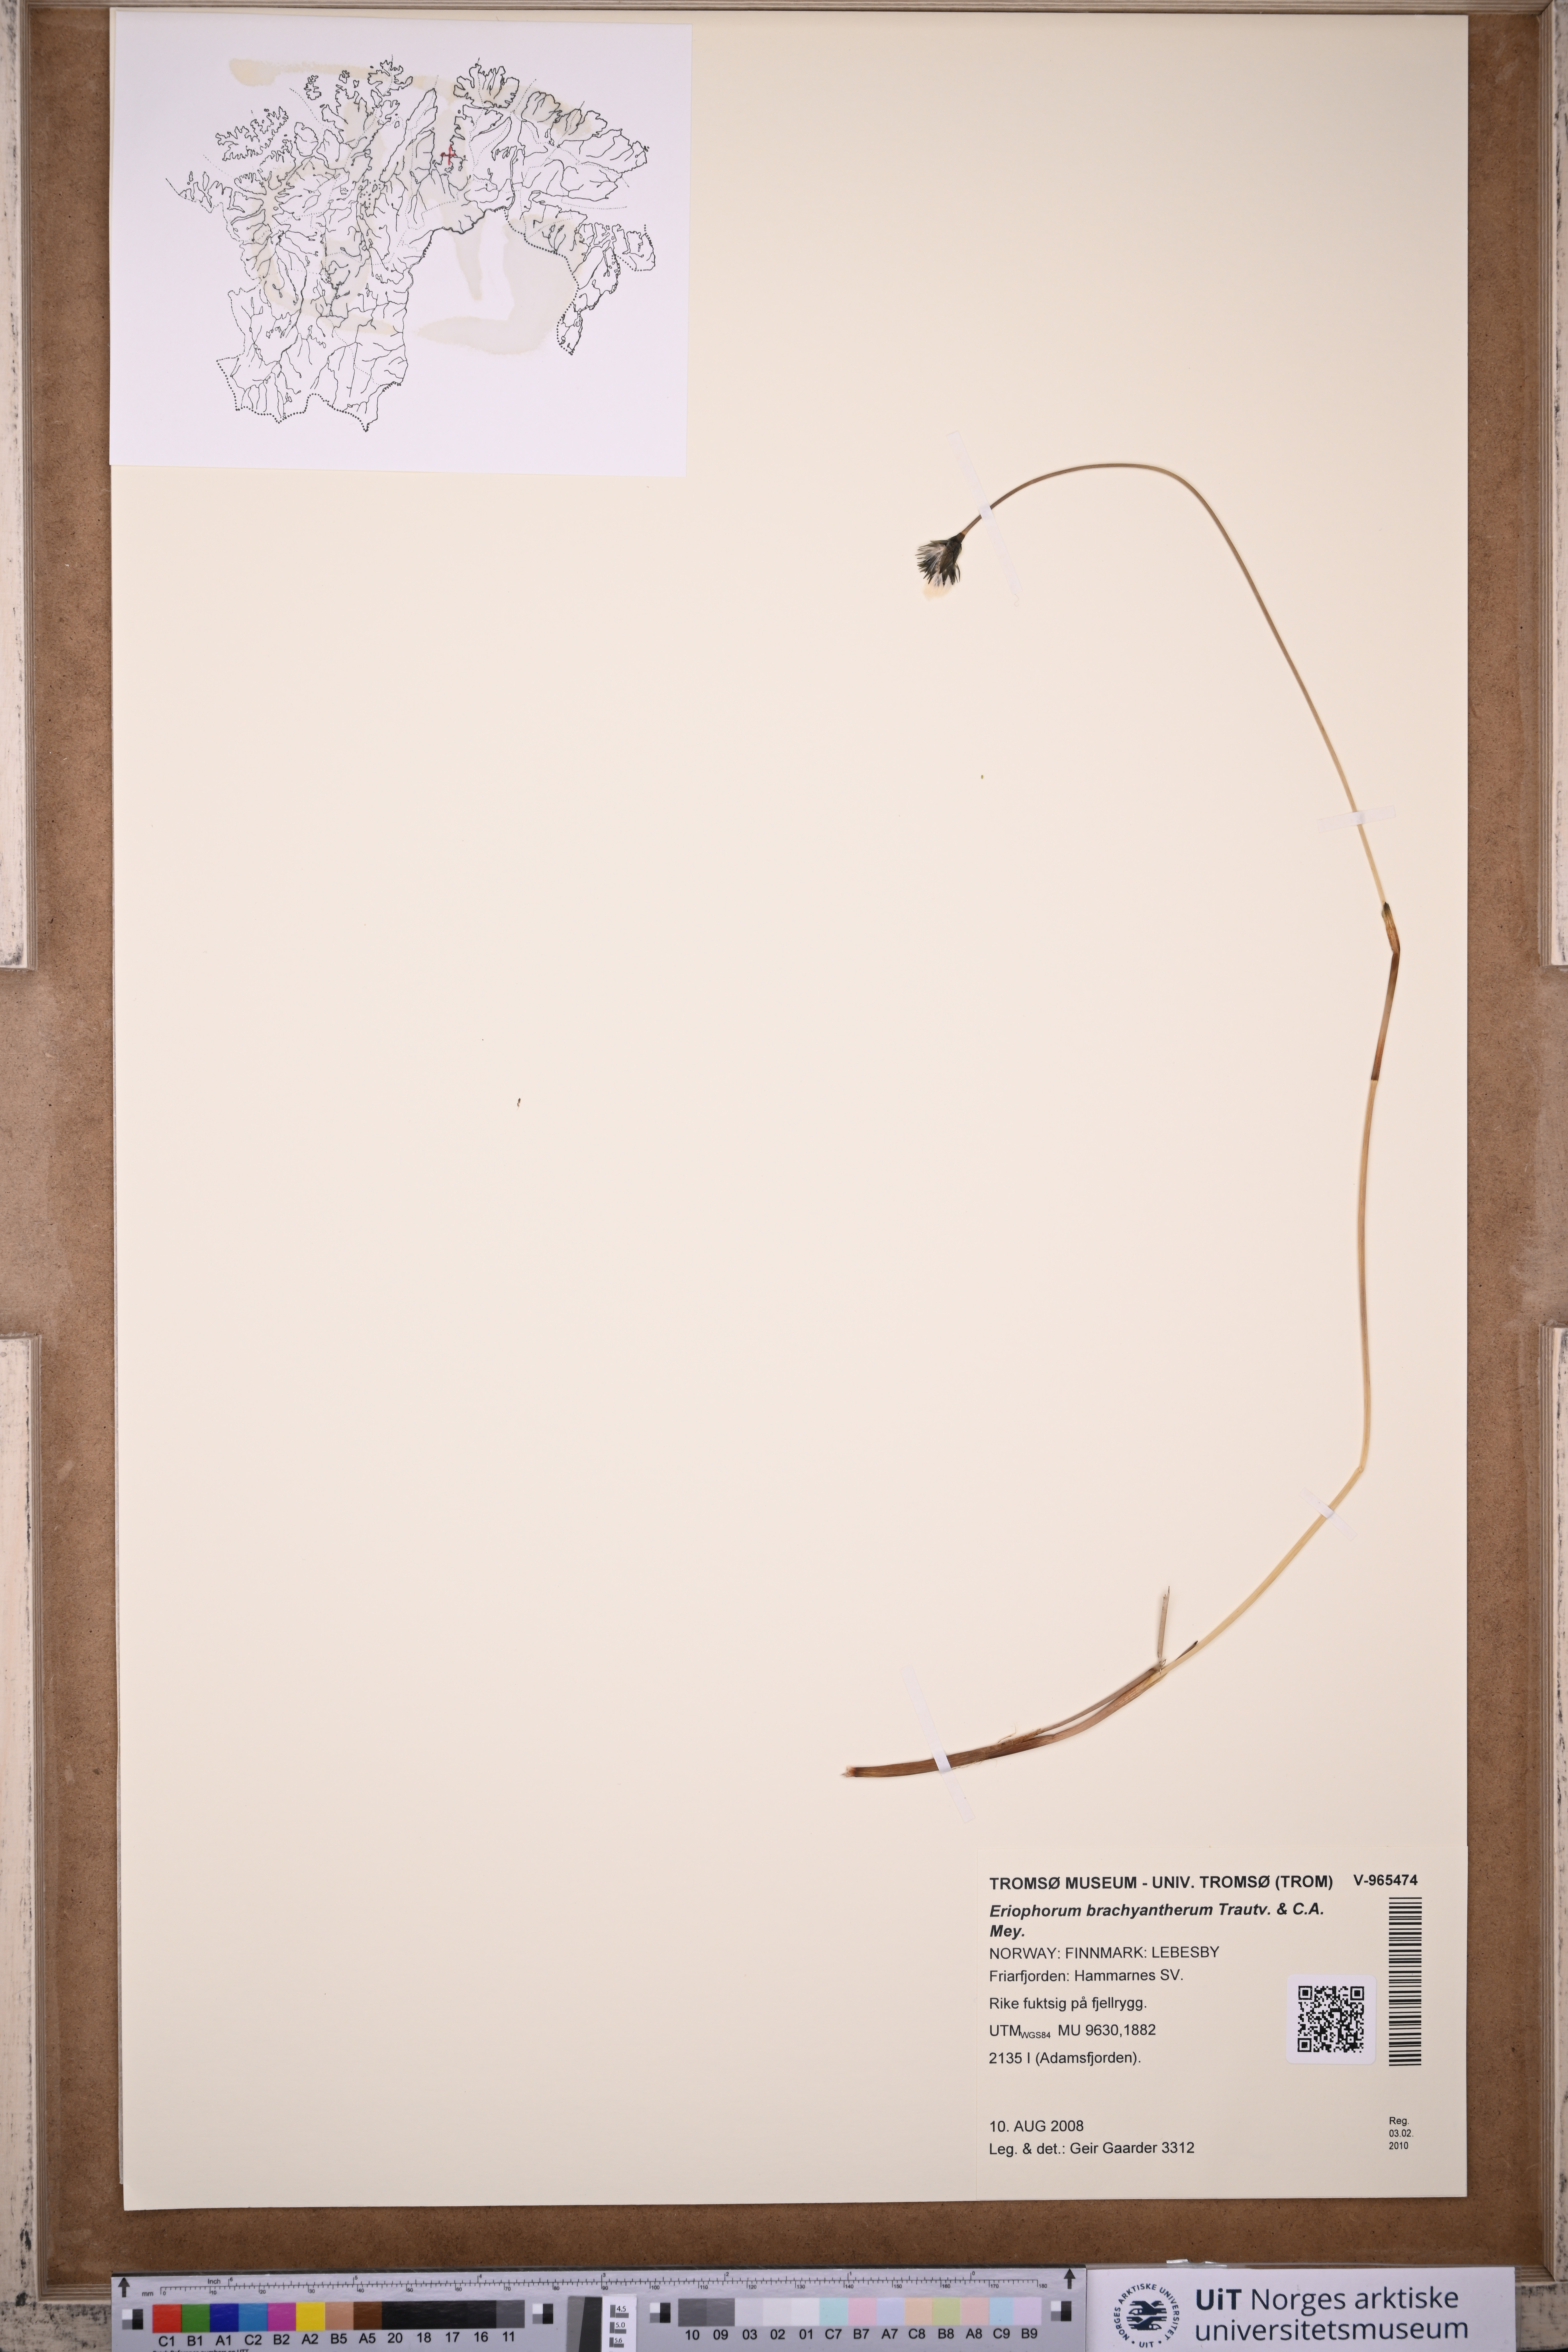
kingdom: Plantae
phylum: Tracheophyta
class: Liliopsida
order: Poales
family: Cyperaceae
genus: Eriophorum
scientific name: Eriophorum brachyantherum
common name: Closed-sheathed cottongrass
